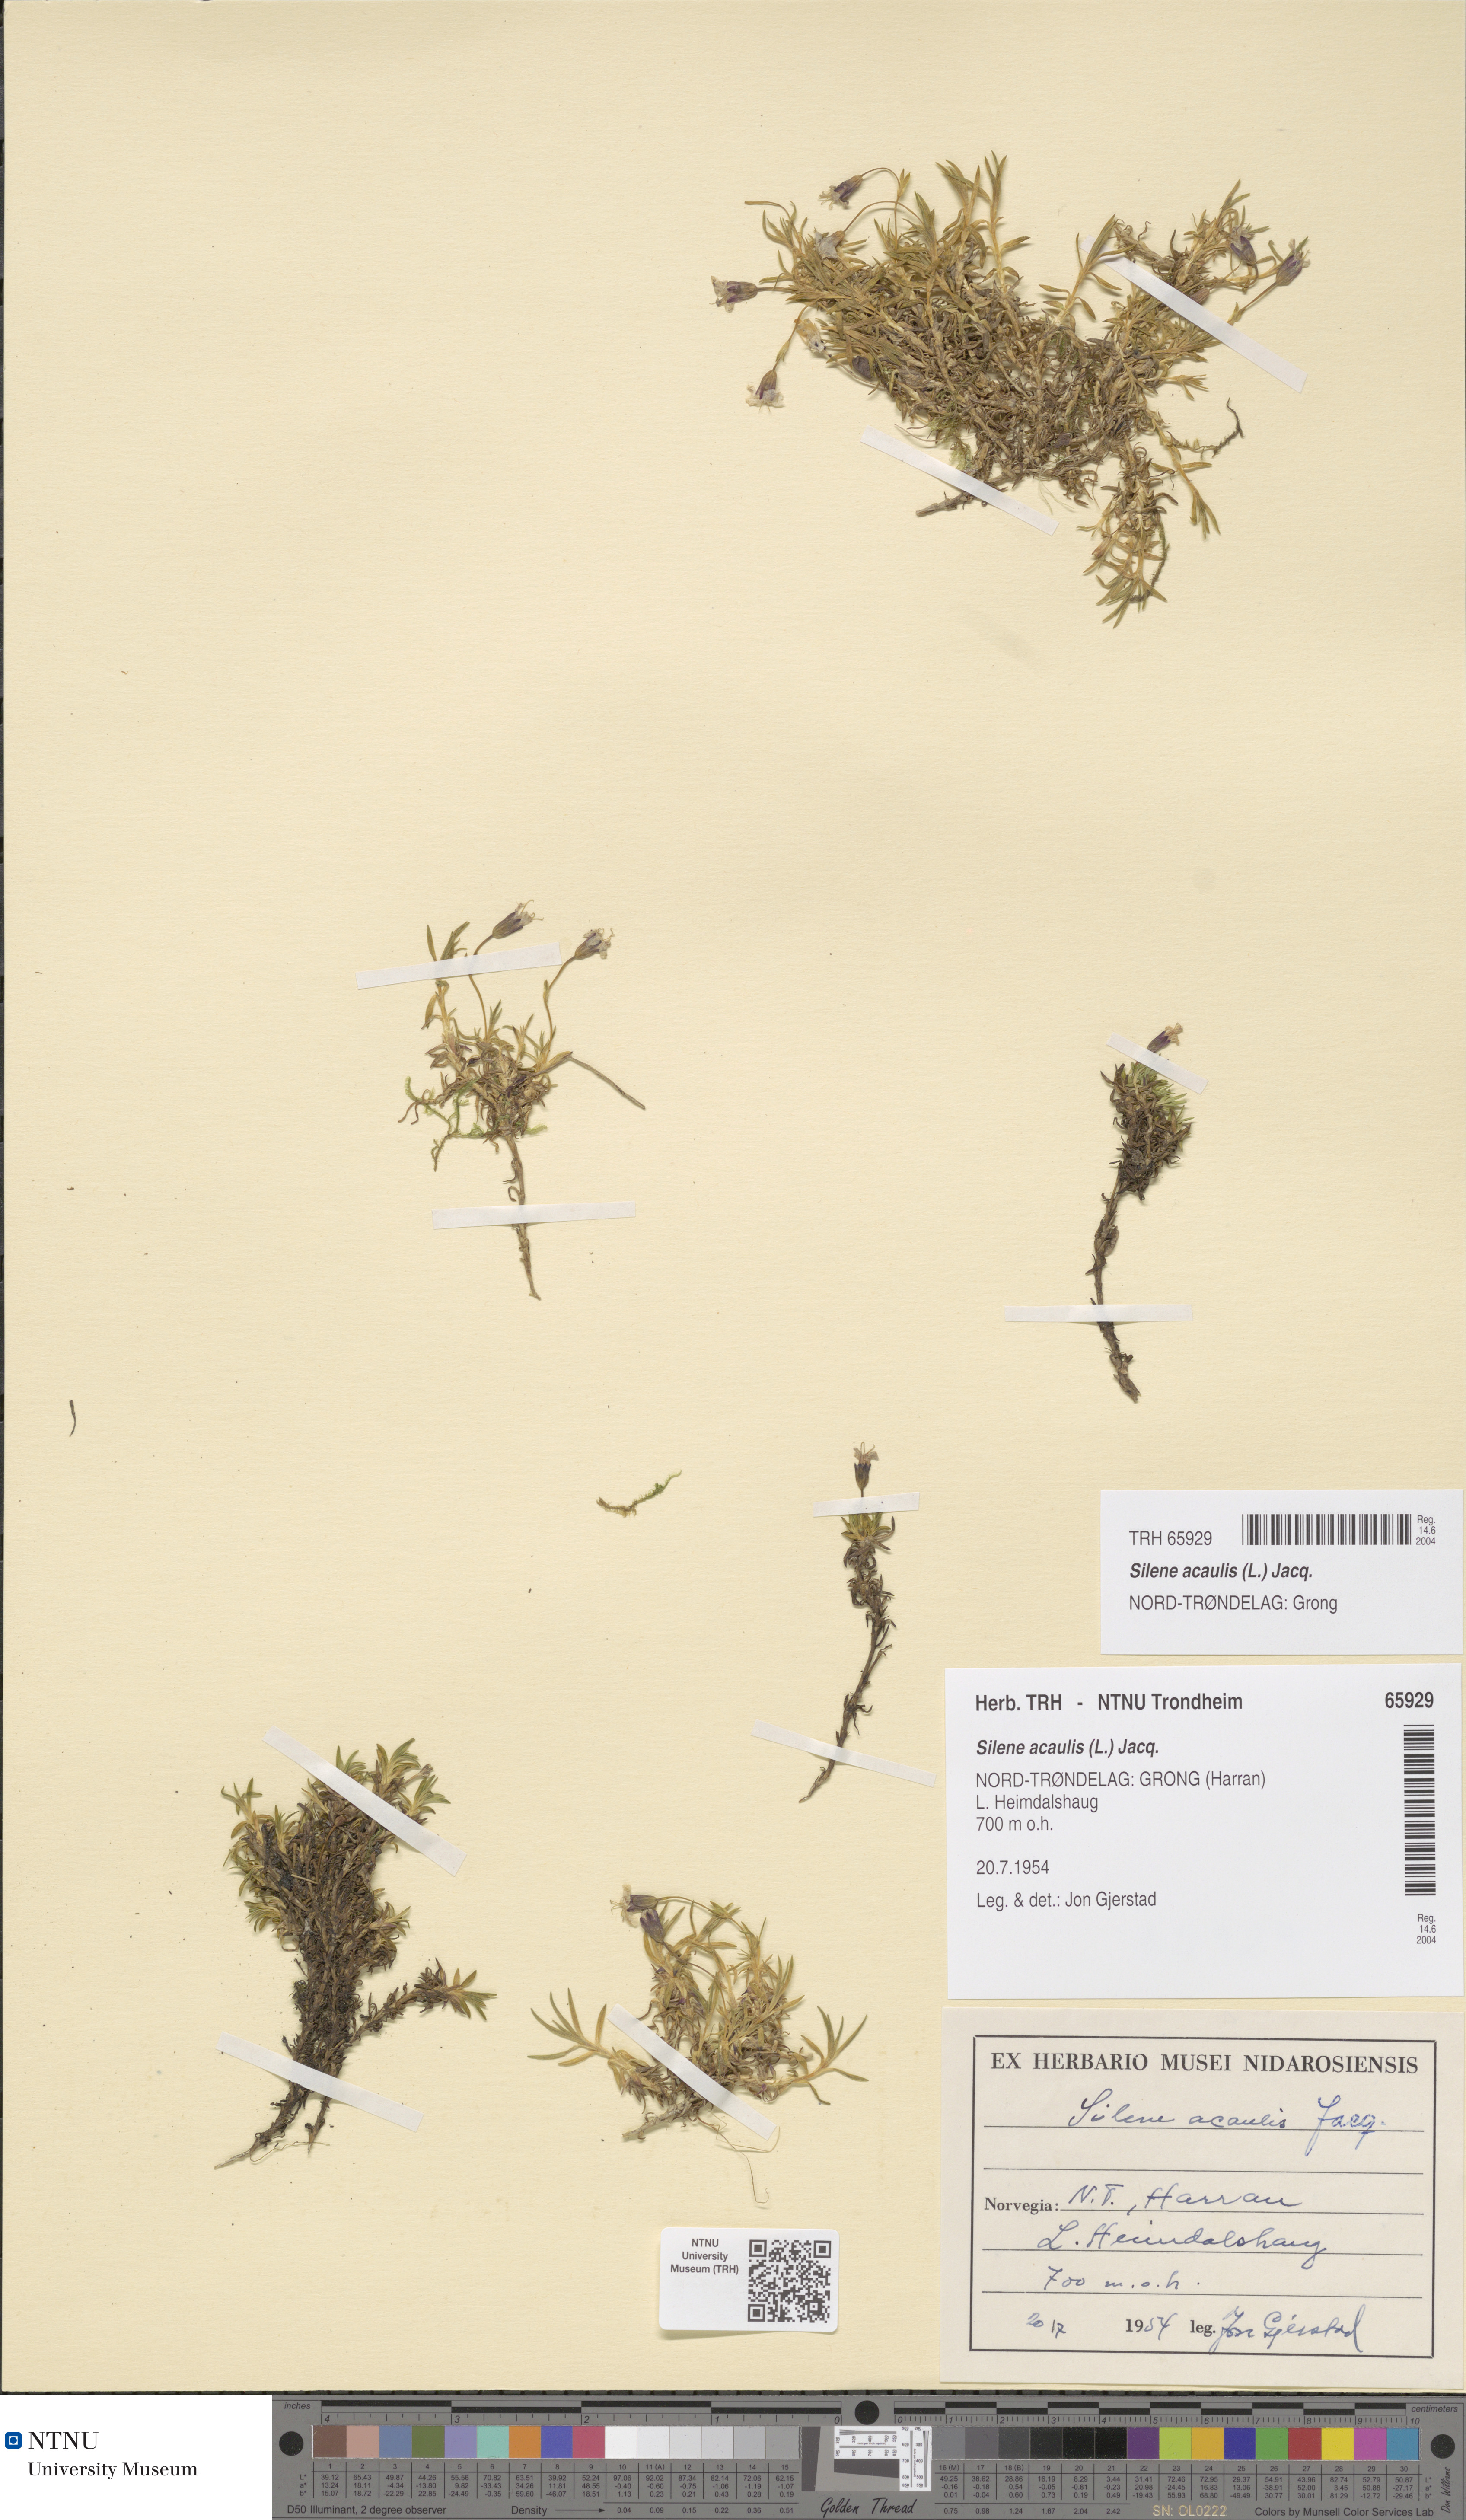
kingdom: Plantae
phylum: Tracheophyta
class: Magnoliopsida
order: Caryophyllales
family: Caryophyllaceae
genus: Silene
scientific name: Silene acaulis
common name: Moss campion
